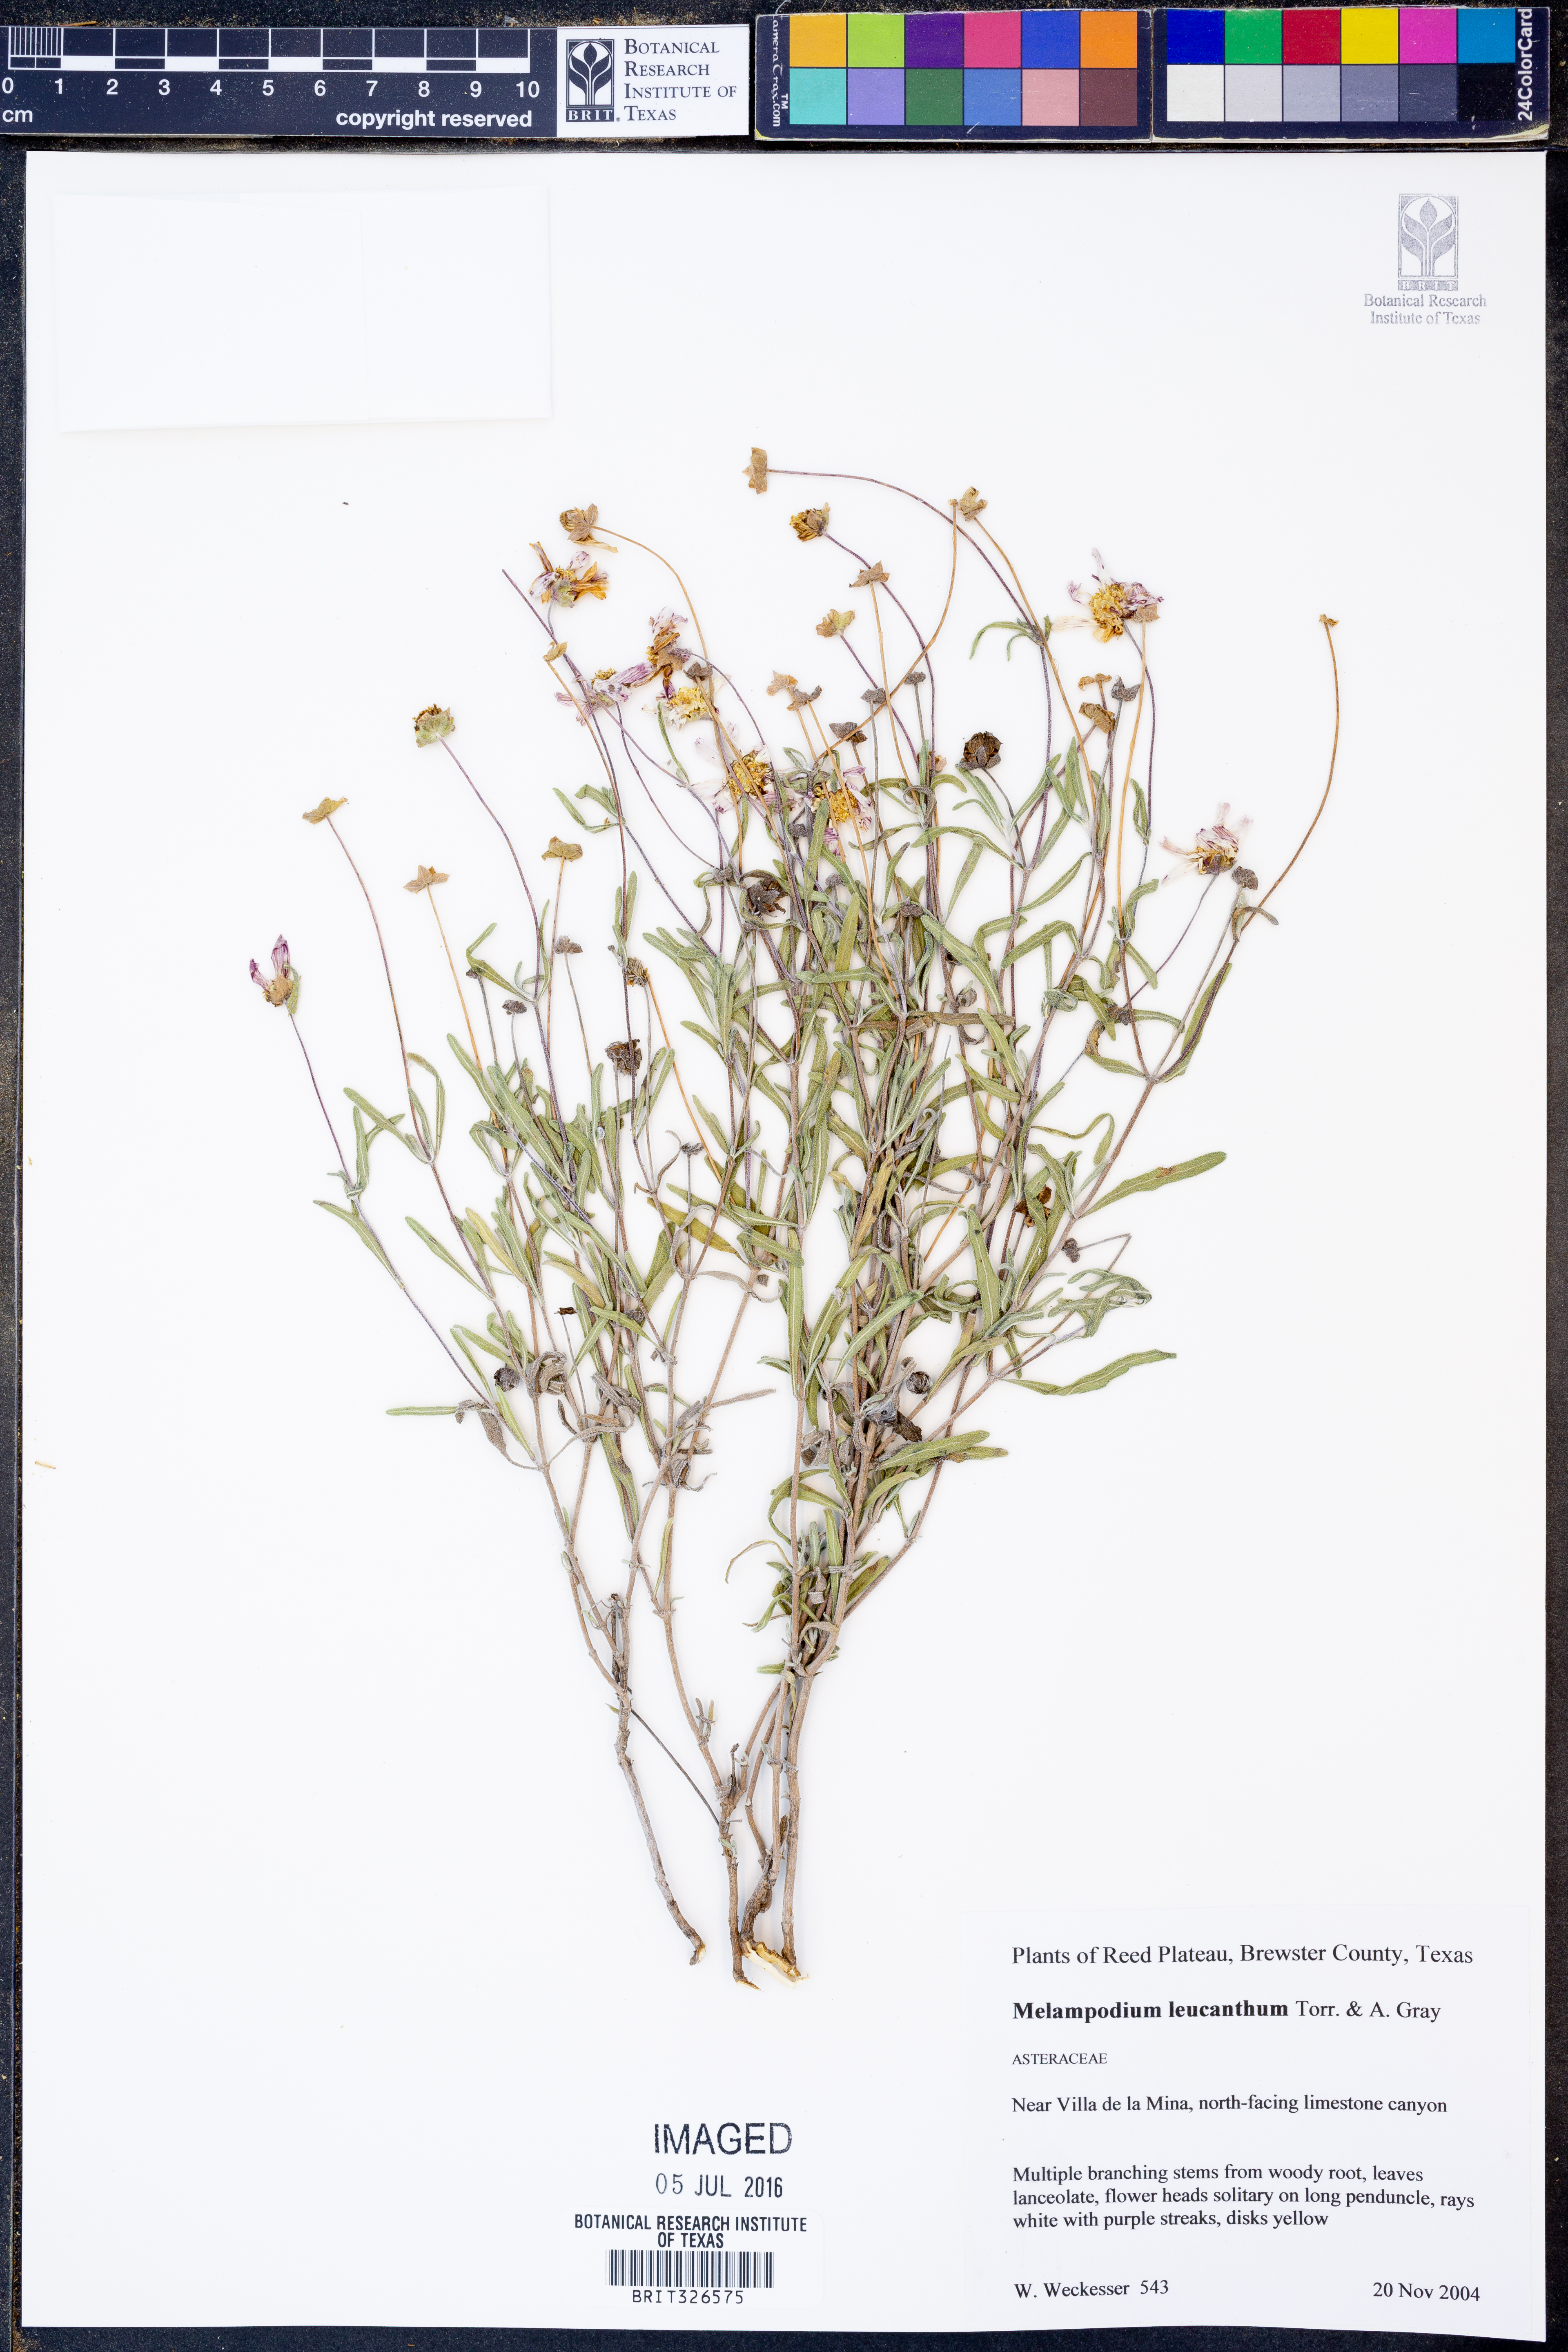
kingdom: Plantae
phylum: Tracheophyta
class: Magnoliopsida
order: Asterales
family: Asteraceae
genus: Melampodium
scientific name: Melampodium leucanthum
